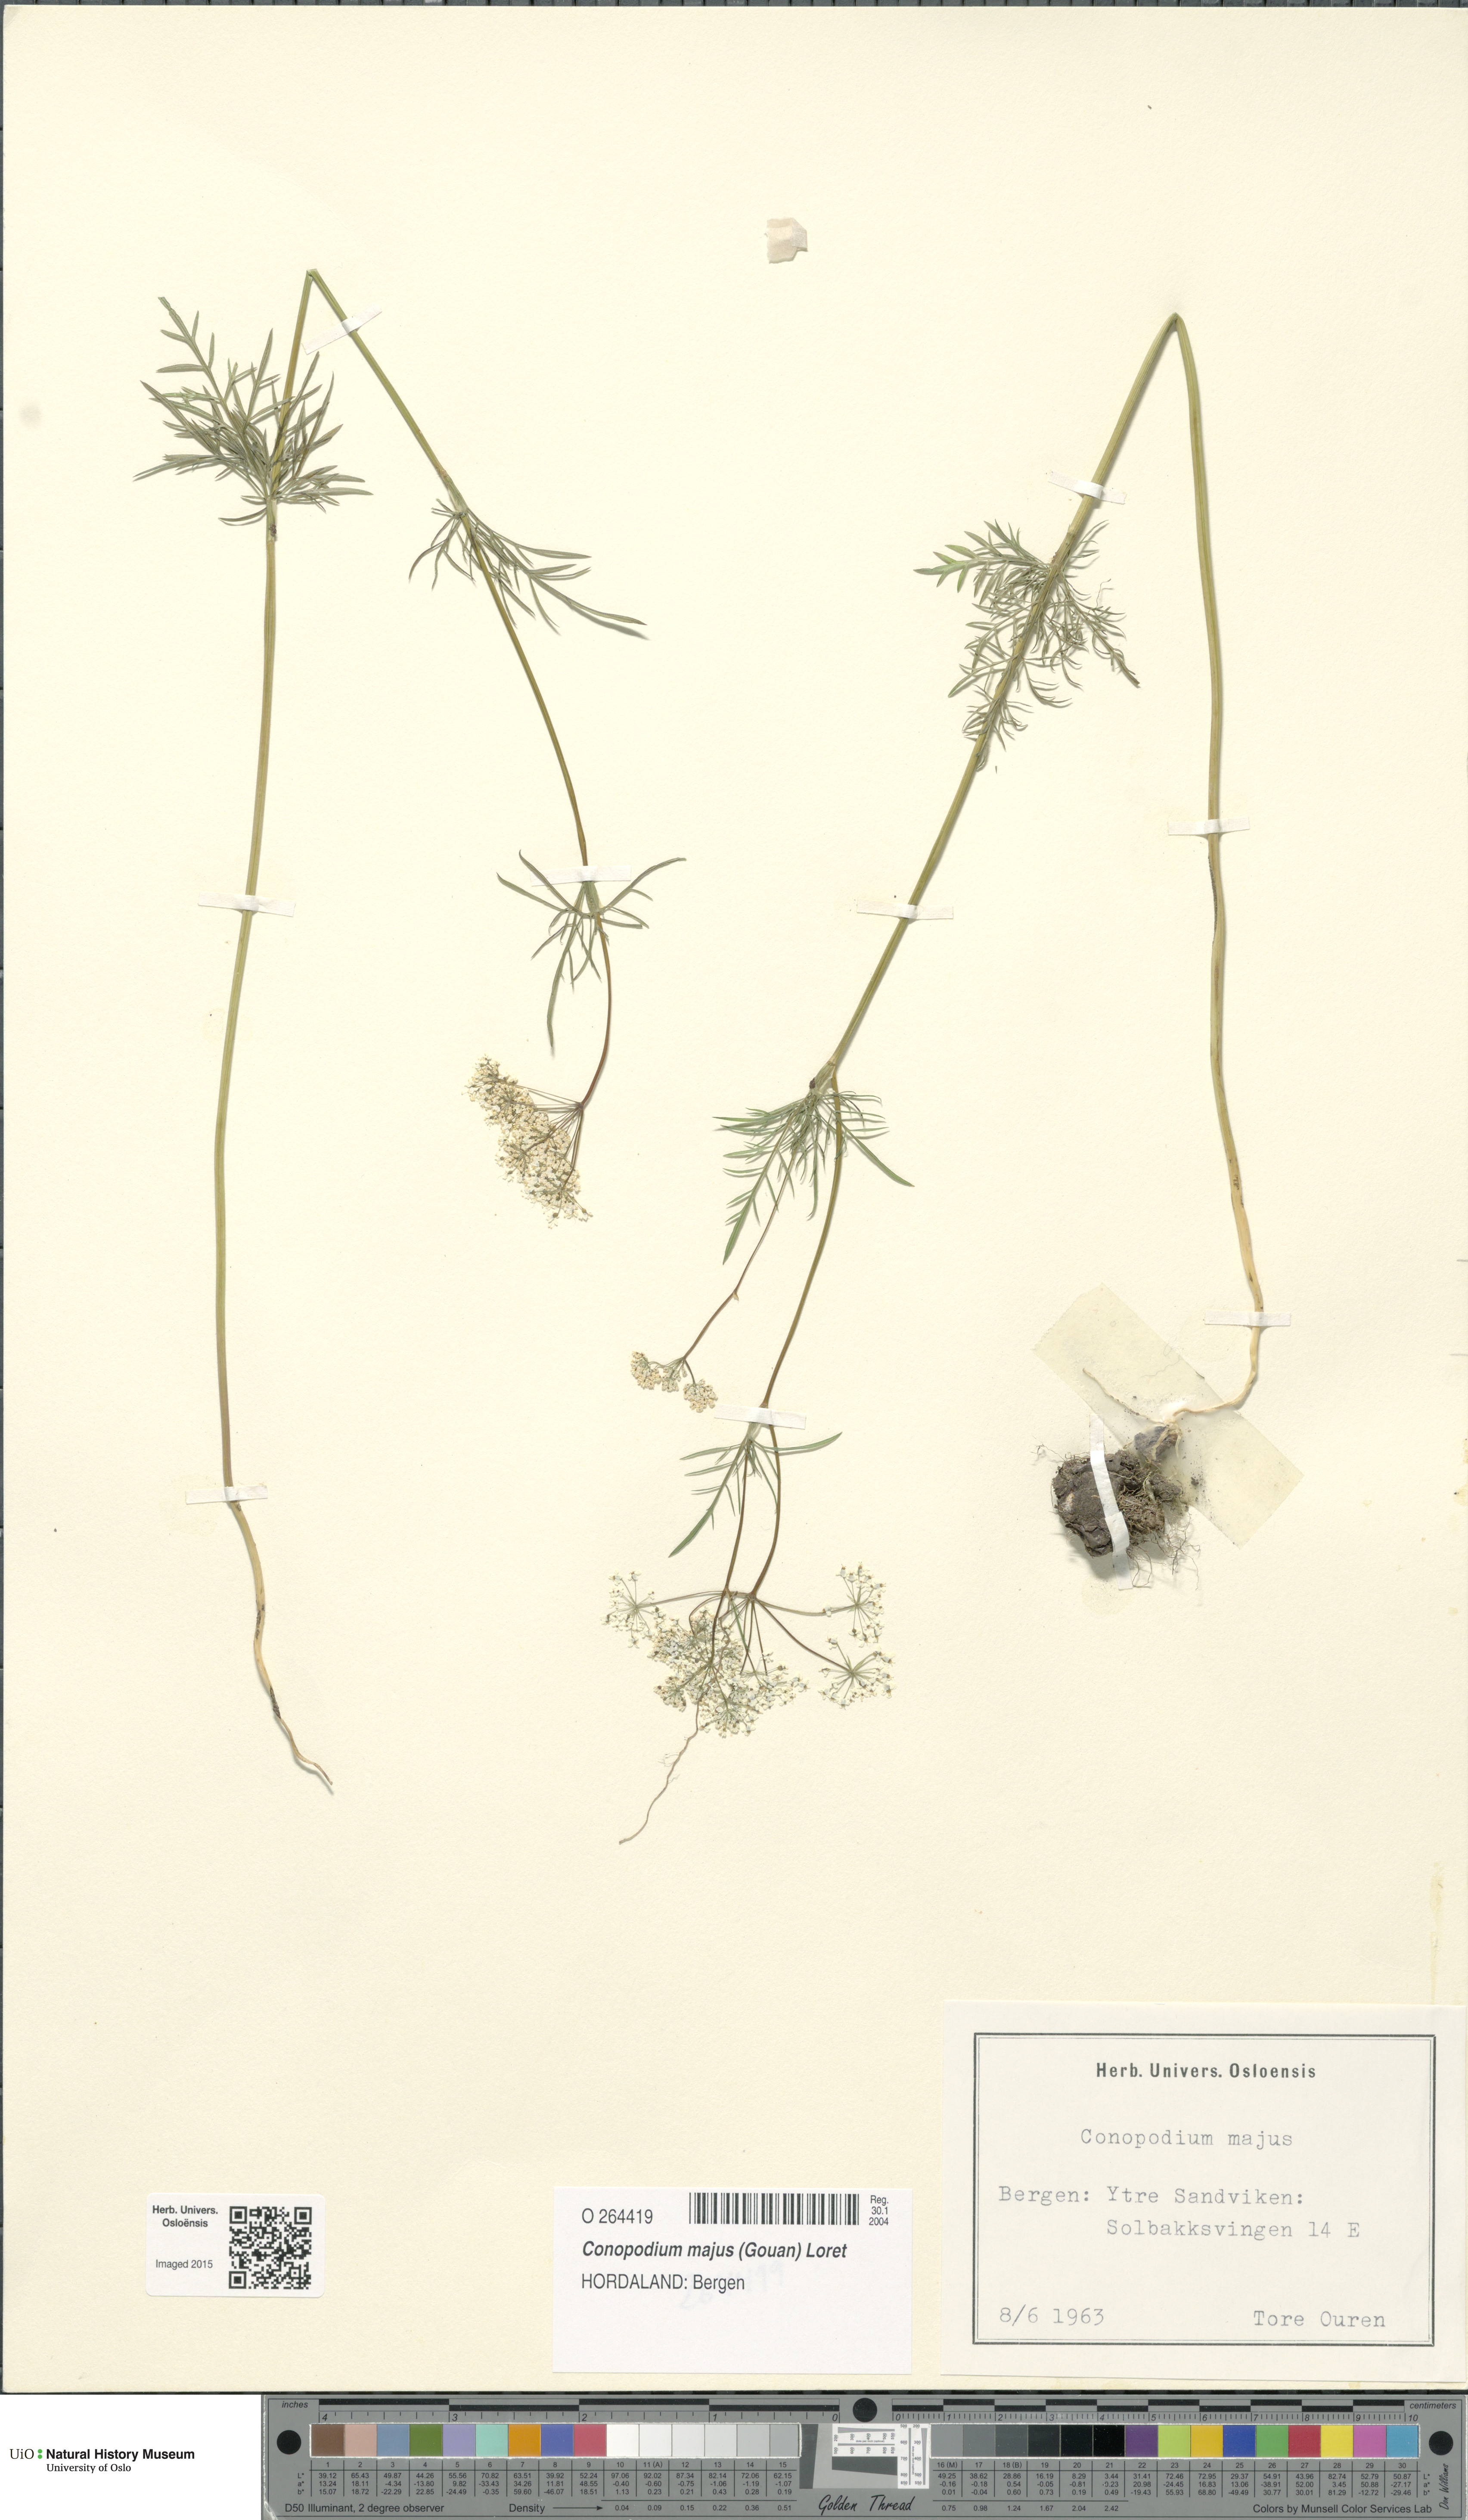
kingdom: Plantae
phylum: Tracheophyta
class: Magnoliopsida
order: Apiales
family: Apiaceae
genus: Conopodium
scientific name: Conopodium majus
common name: Pignut
